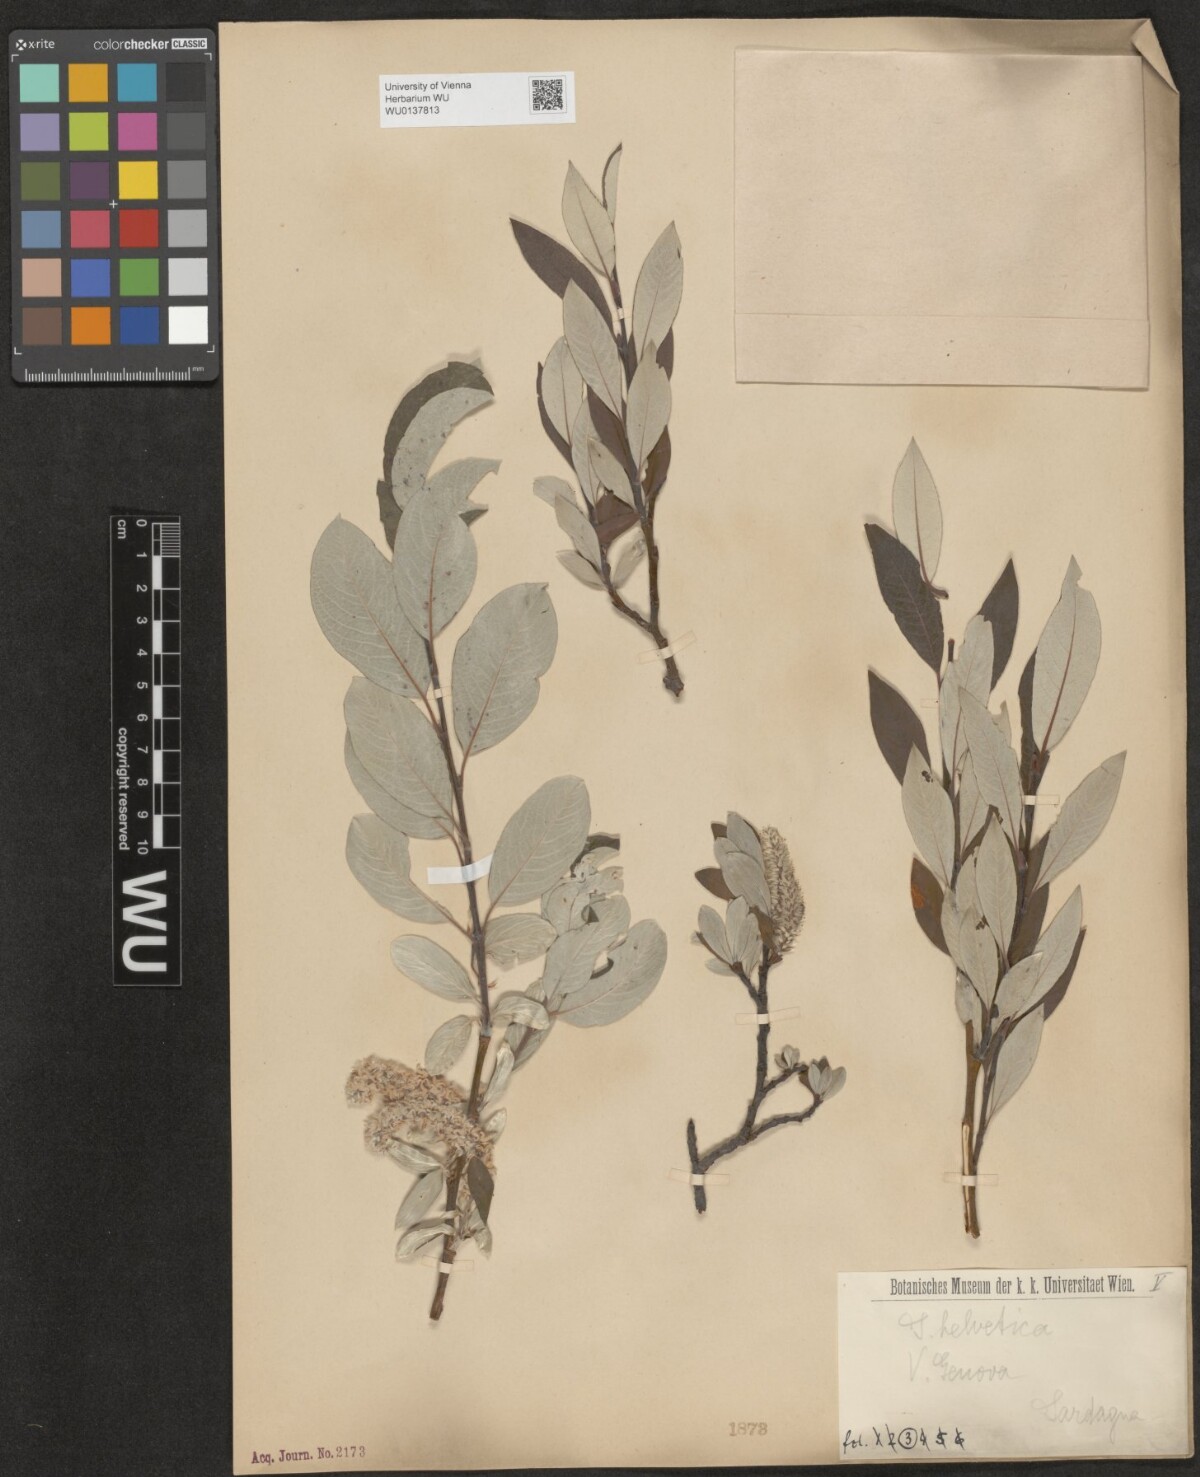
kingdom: Plantae
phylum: Tracheophyta
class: Magnoliopsida
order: Malpighiales
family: Salicaceae
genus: Salix
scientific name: Salix helvetica
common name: Swiss willow
